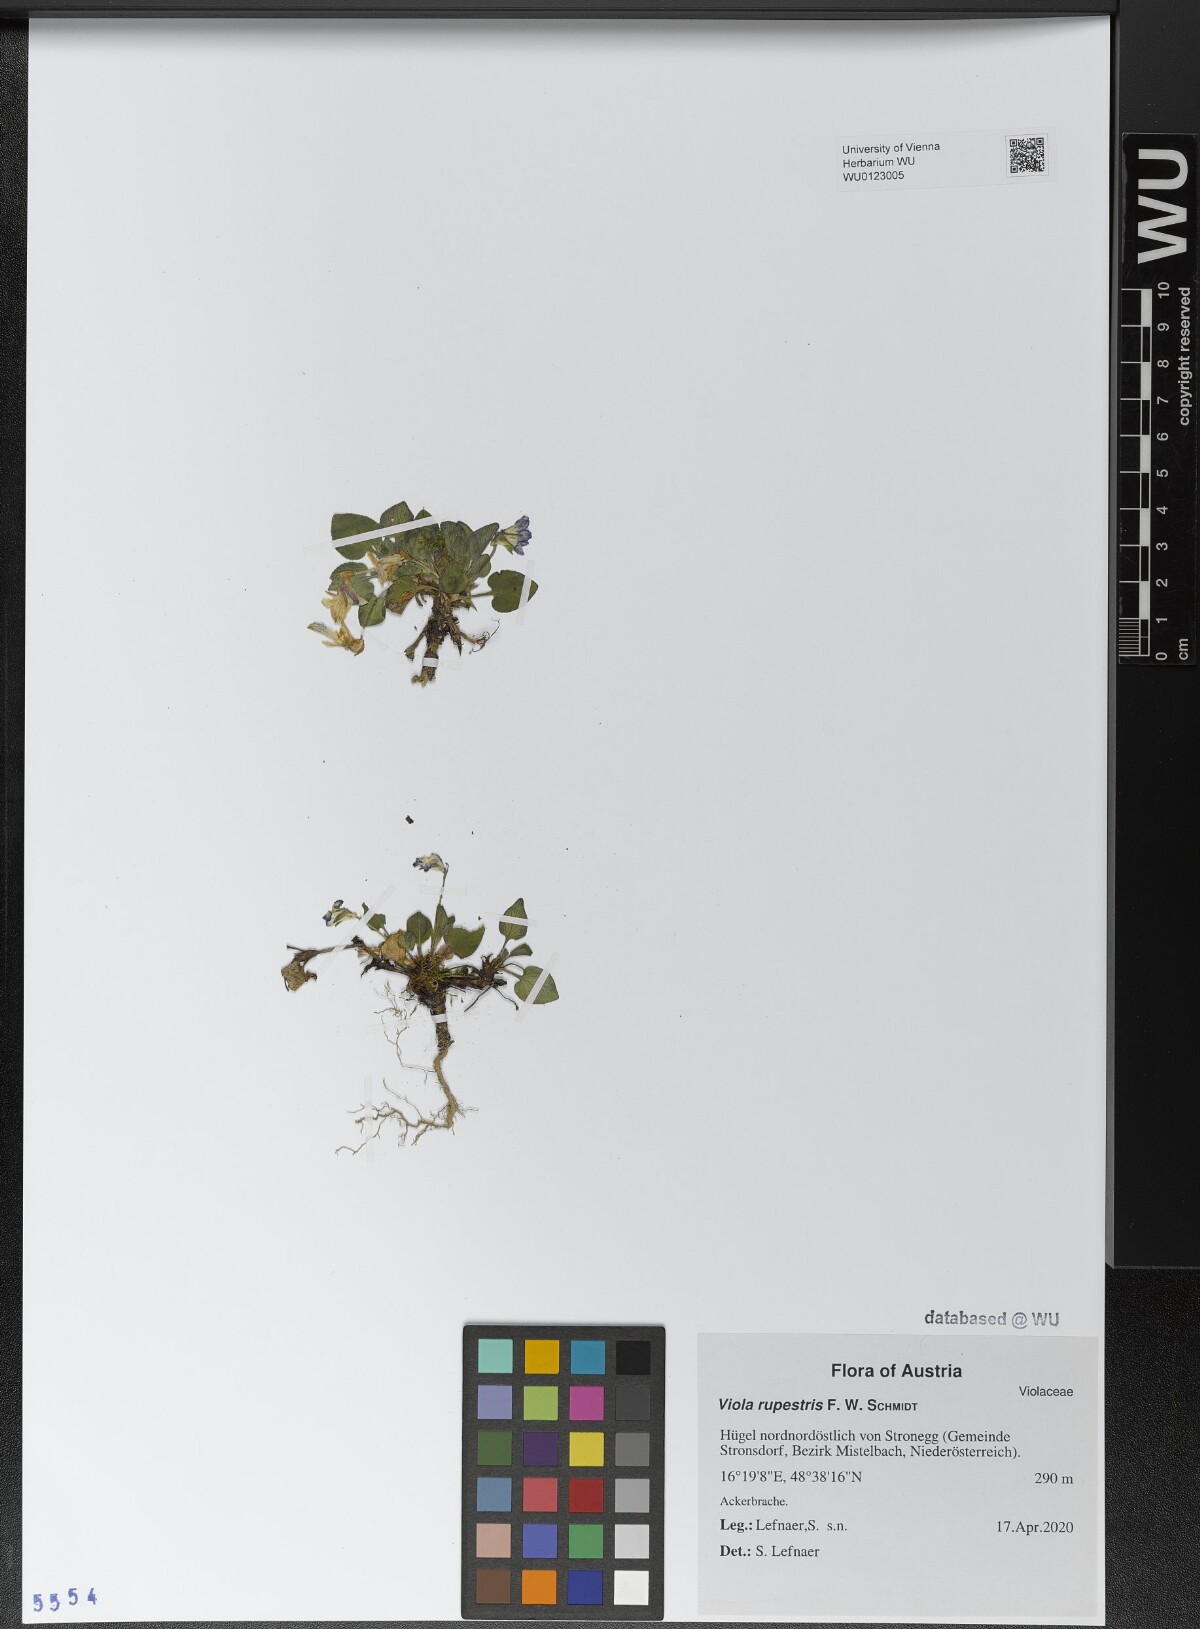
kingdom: Plantae
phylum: Tracheophyta
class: Magnoliopsida
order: Malpighiales
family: Violaceae
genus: Viola
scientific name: Viola rupestris
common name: Teesdale violet
